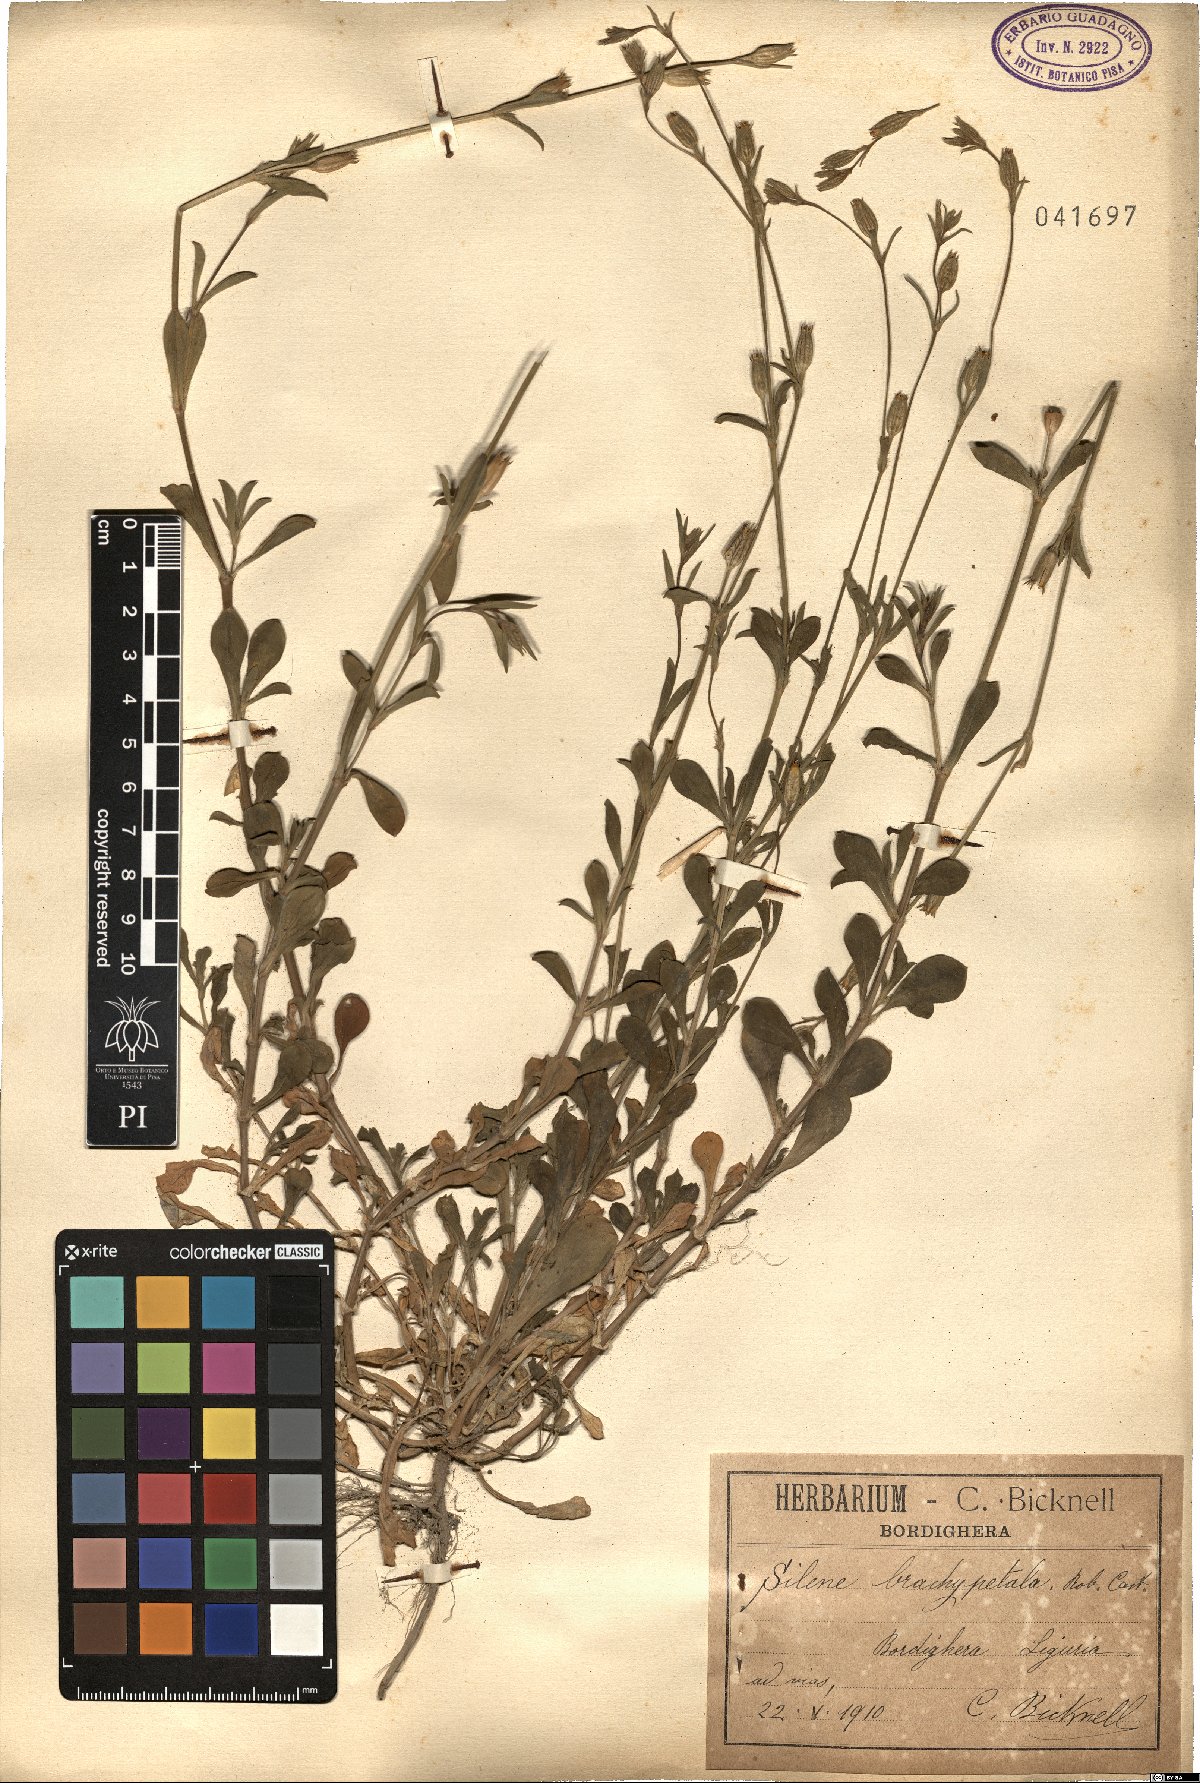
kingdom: Plantae
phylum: Tracheophyta
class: Magnoliopsida
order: Caryophyllales
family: Caryophyllaceae
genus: Silene
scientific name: Silene nocturna
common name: Mediterranean catchfly
